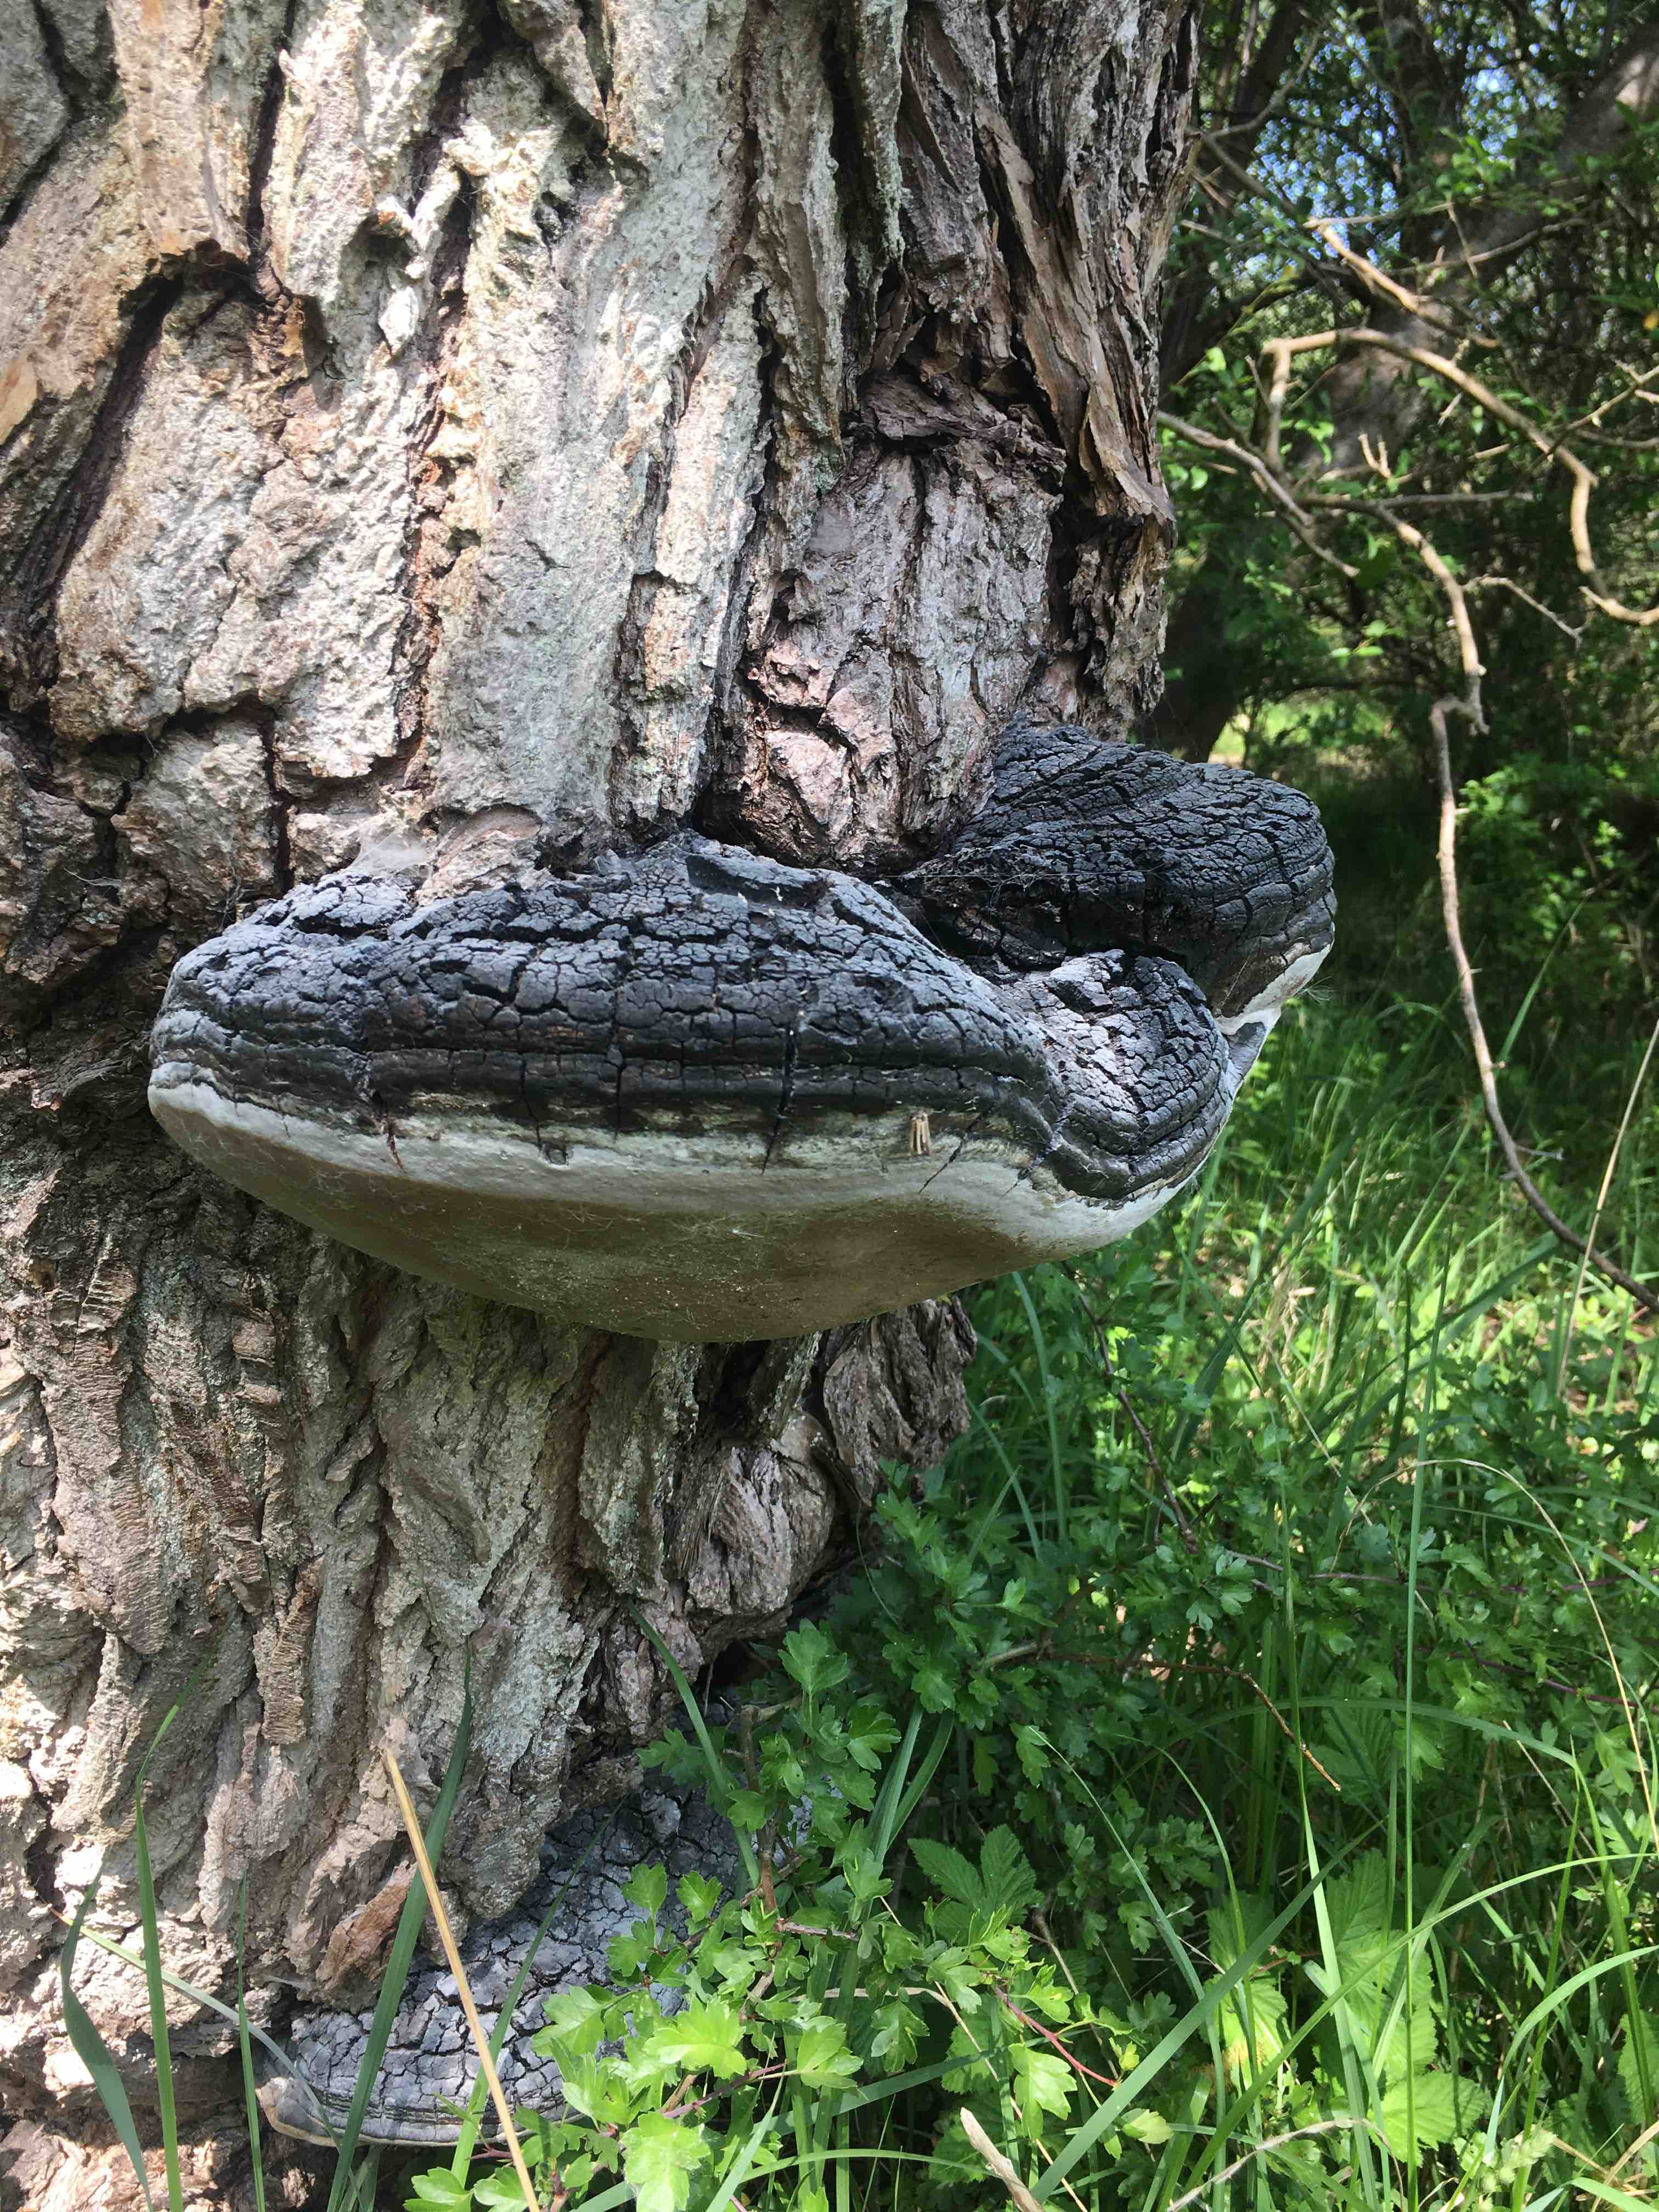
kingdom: Fungi
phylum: Basidiomycota
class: Agaricomycetes
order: Hymenochaetales
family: Hymenochaetaceae
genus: Phellinus
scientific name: Phellinus igniarius
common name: almindelig ildporesvamp
